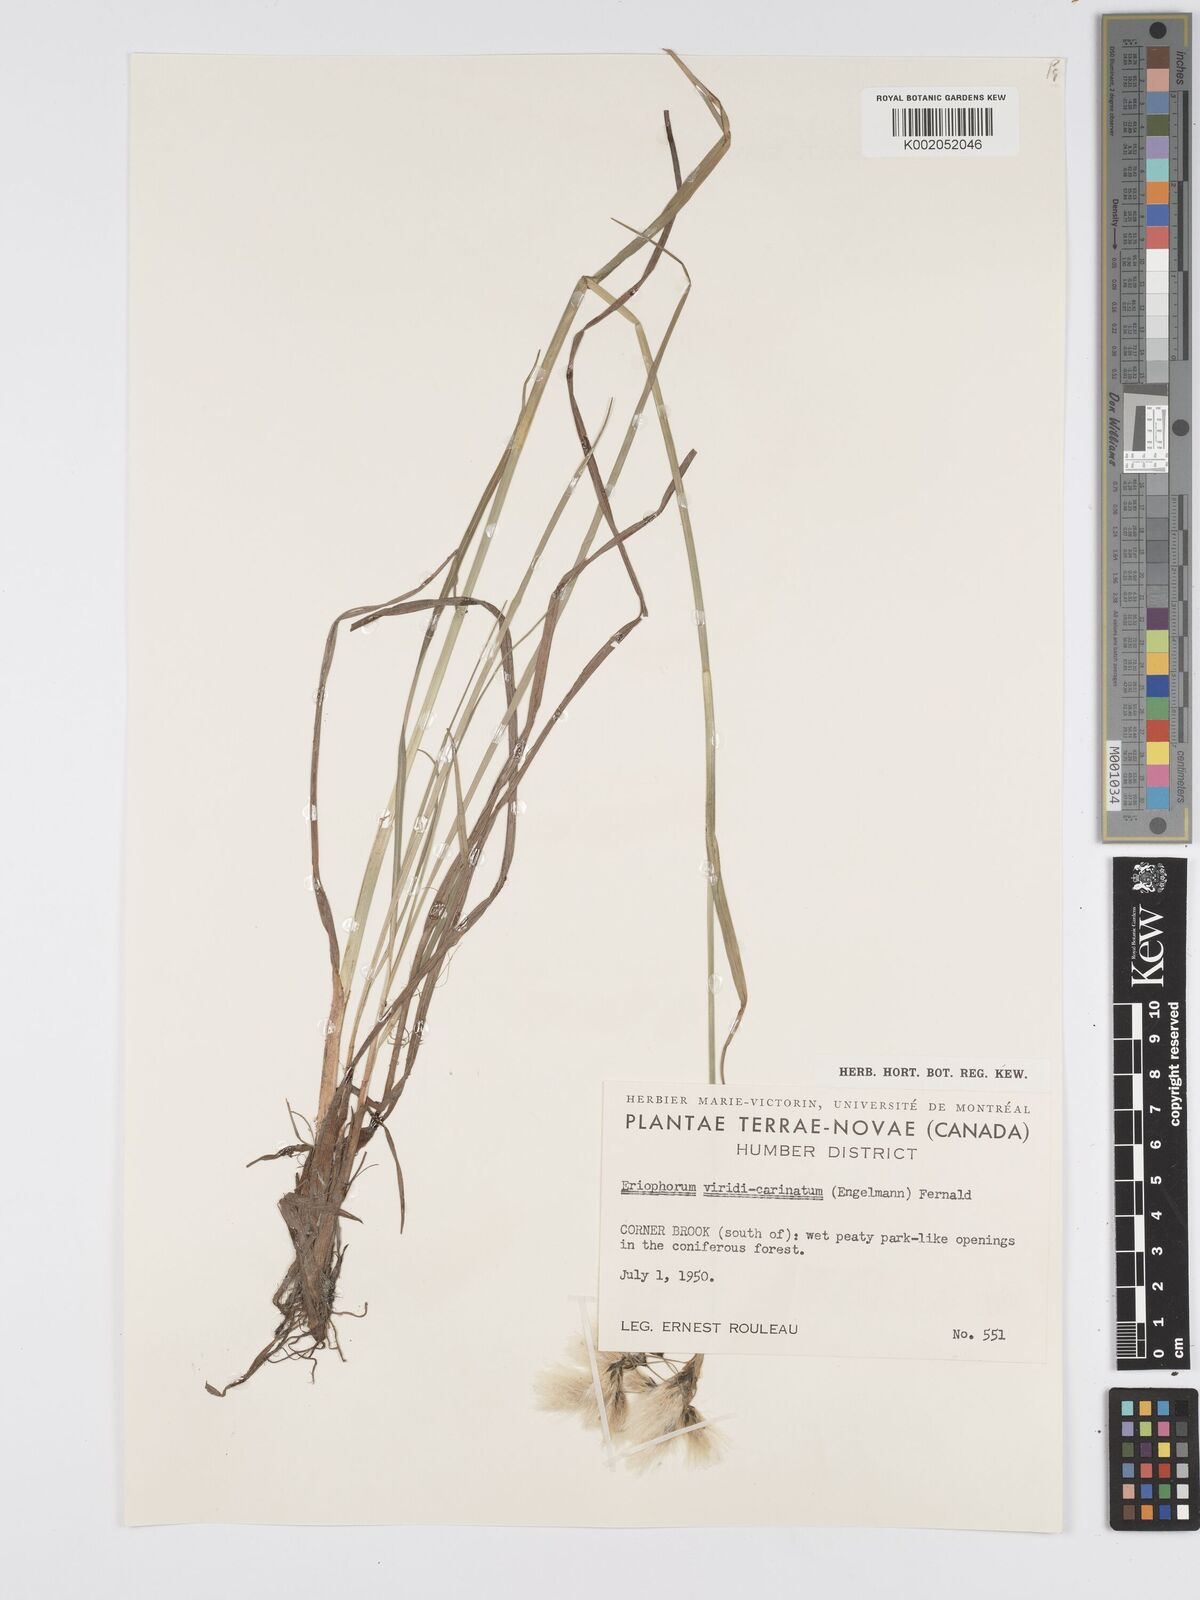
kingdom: Plantae
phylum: Tracheophyta
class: Liliopsida
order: Poales
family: Cyperaceae
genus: Eriophorum
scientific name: Eriophorum viridicarinatum
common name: Green-keeled cottongrass
